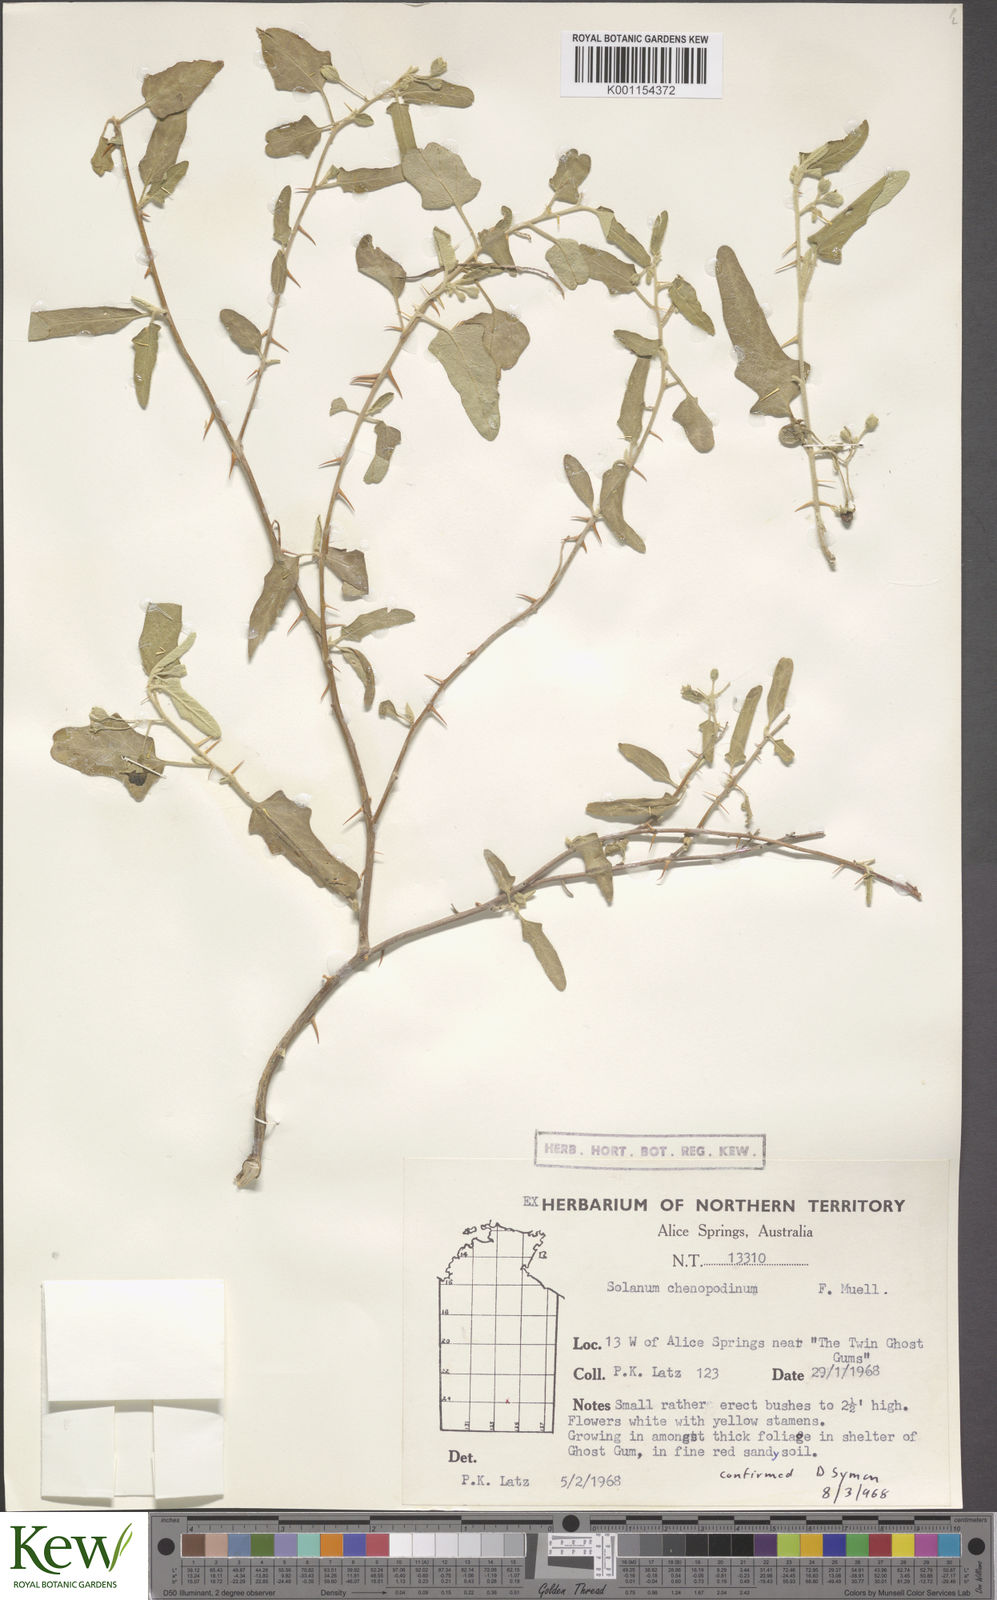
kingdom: Plantae
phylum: Tracheophyta
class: Magnoliopsida
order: Solanales
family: Solanaceae
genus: Solanum
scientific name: Solanum chenopodinum
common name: Goosefoot potato-bush
